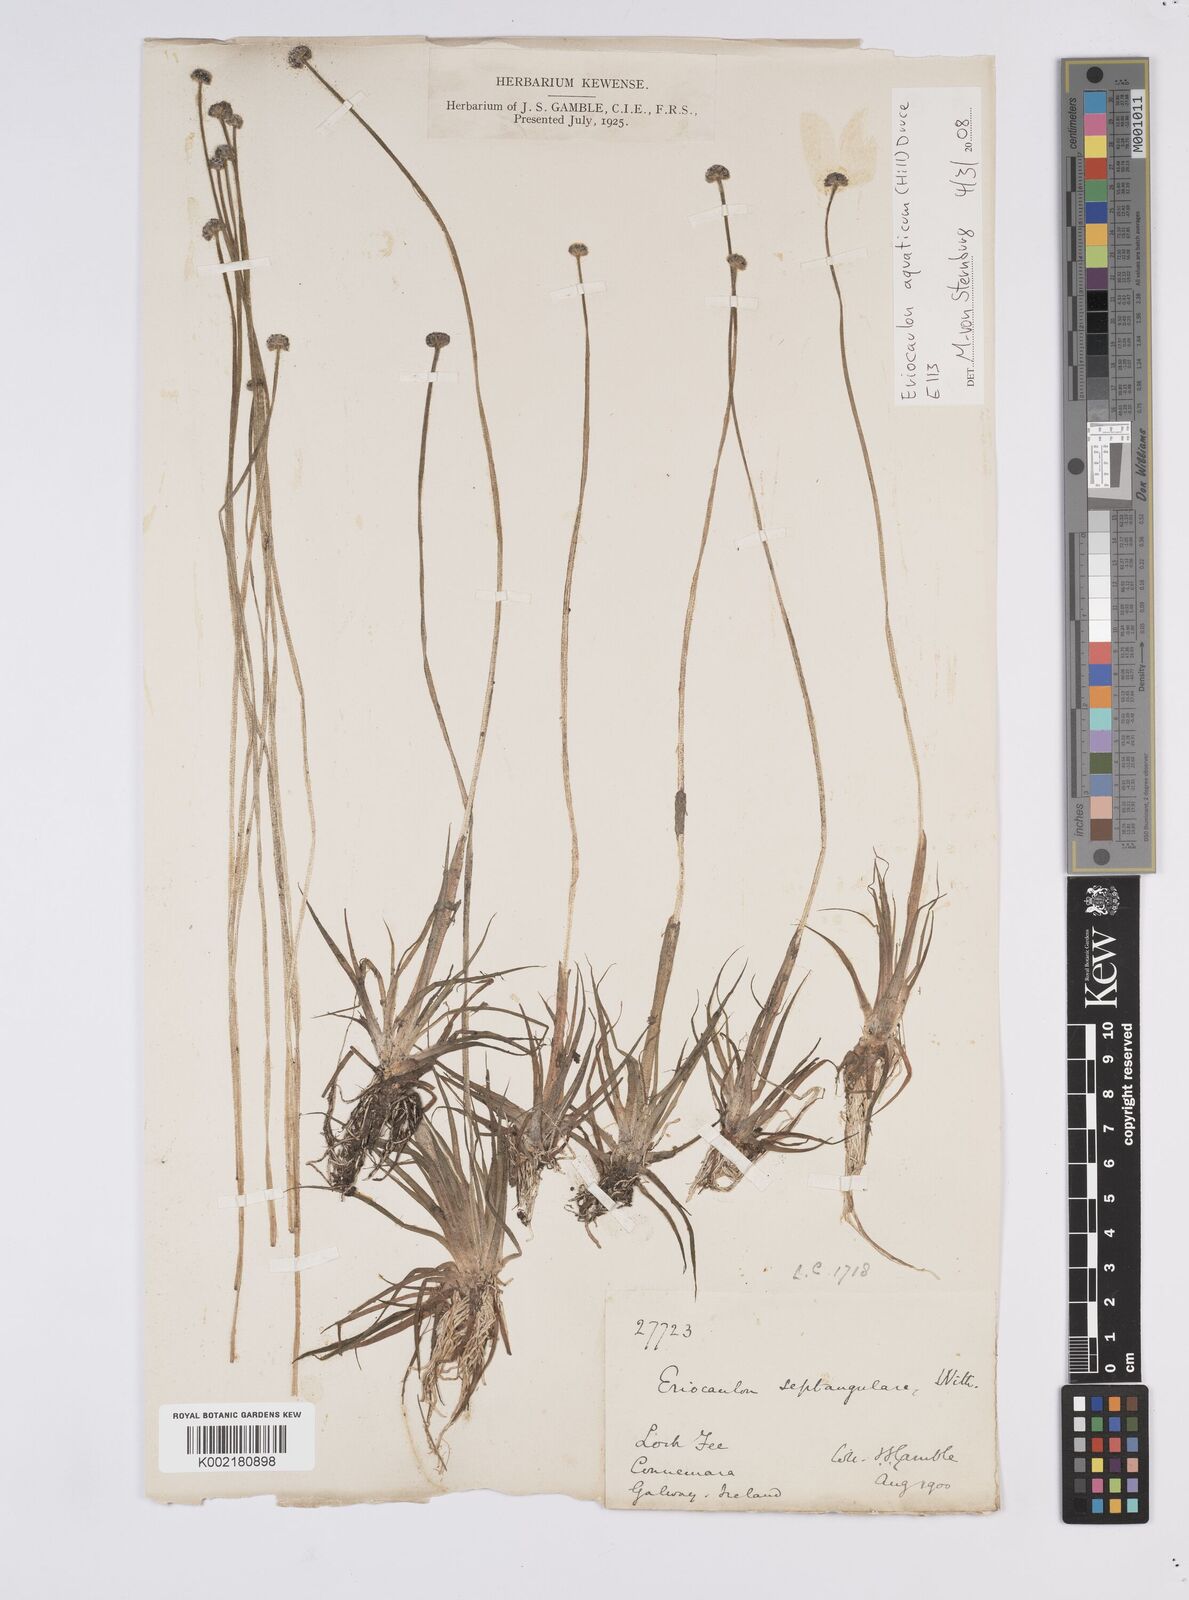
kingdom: Plantae
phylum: Tracheophyta
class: Liliopsida
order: Poales
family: Eriocaulaceae
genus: Eriocaulon
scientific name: Eriocaulon aquaticum
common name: Pipewort
